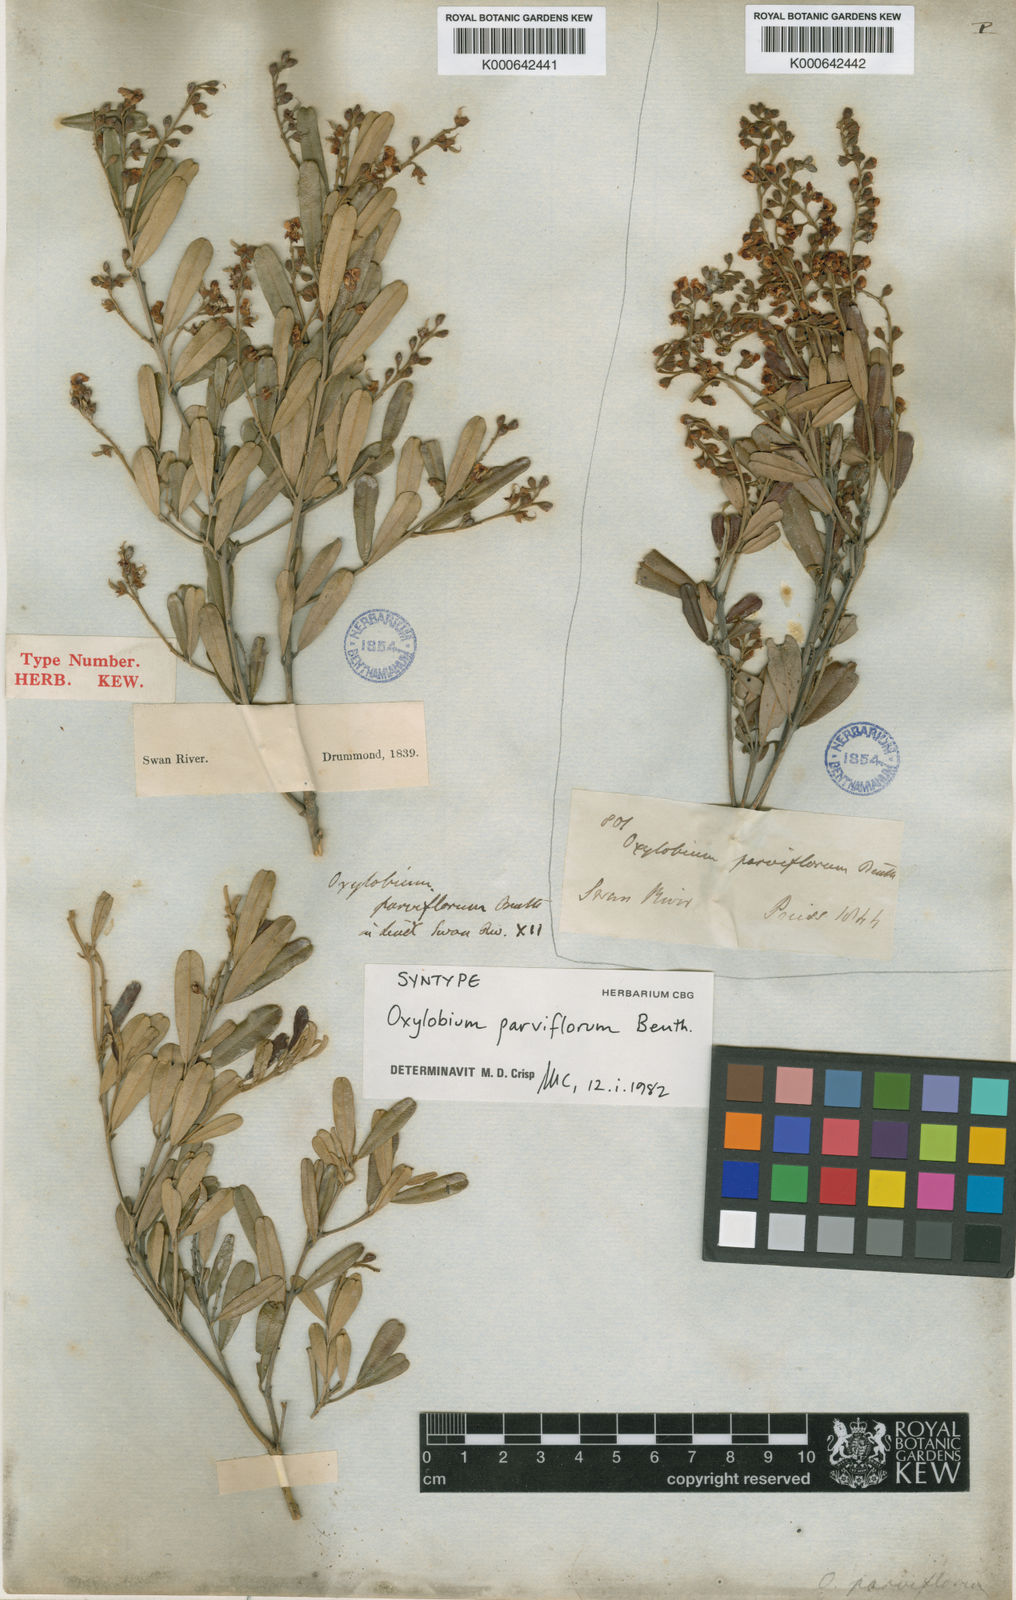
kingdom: Plantae
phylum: Tracheophyta
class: Magnoliopsida
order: Fabales
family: Fabaceae
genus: Gastrolobium
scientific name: Gastrolobium parviflorum
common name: Berry poisonbush
